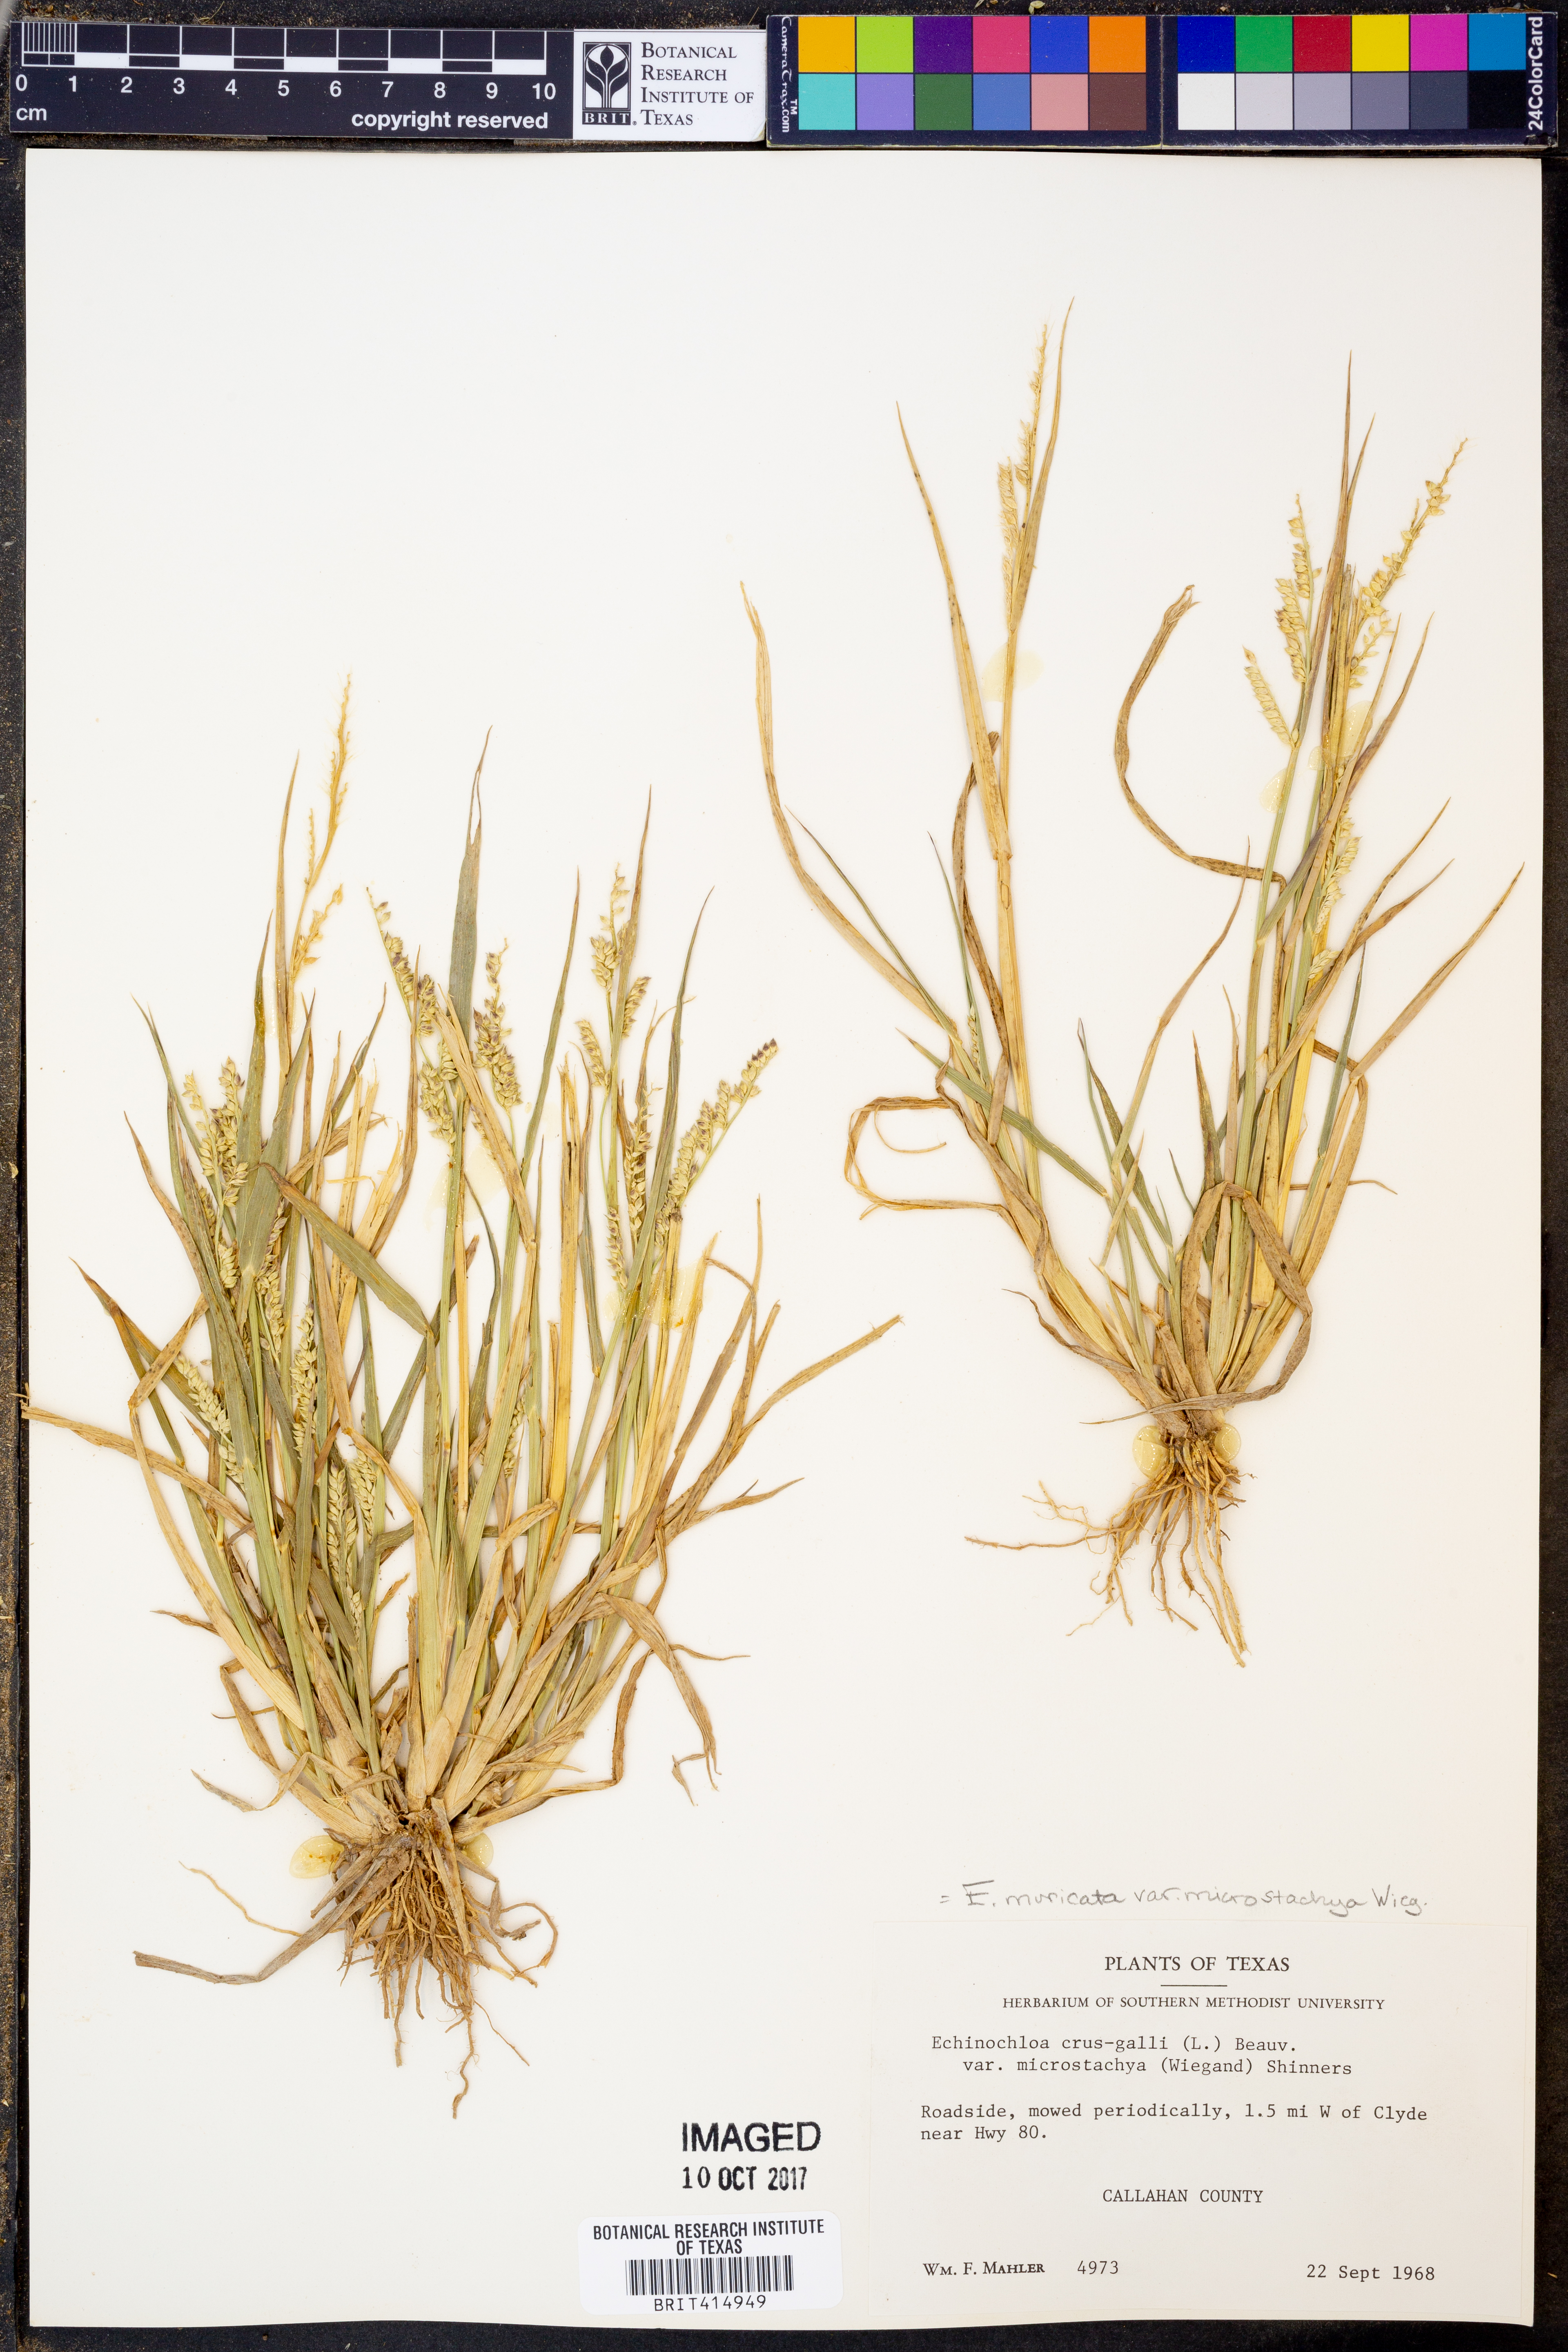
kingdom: Plantae
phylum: Tracheophyta
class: Liliopsida
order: Poales
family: Poaceae
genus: Echinochloa
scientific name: Echinochloa muricata
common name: American barnyard grass
